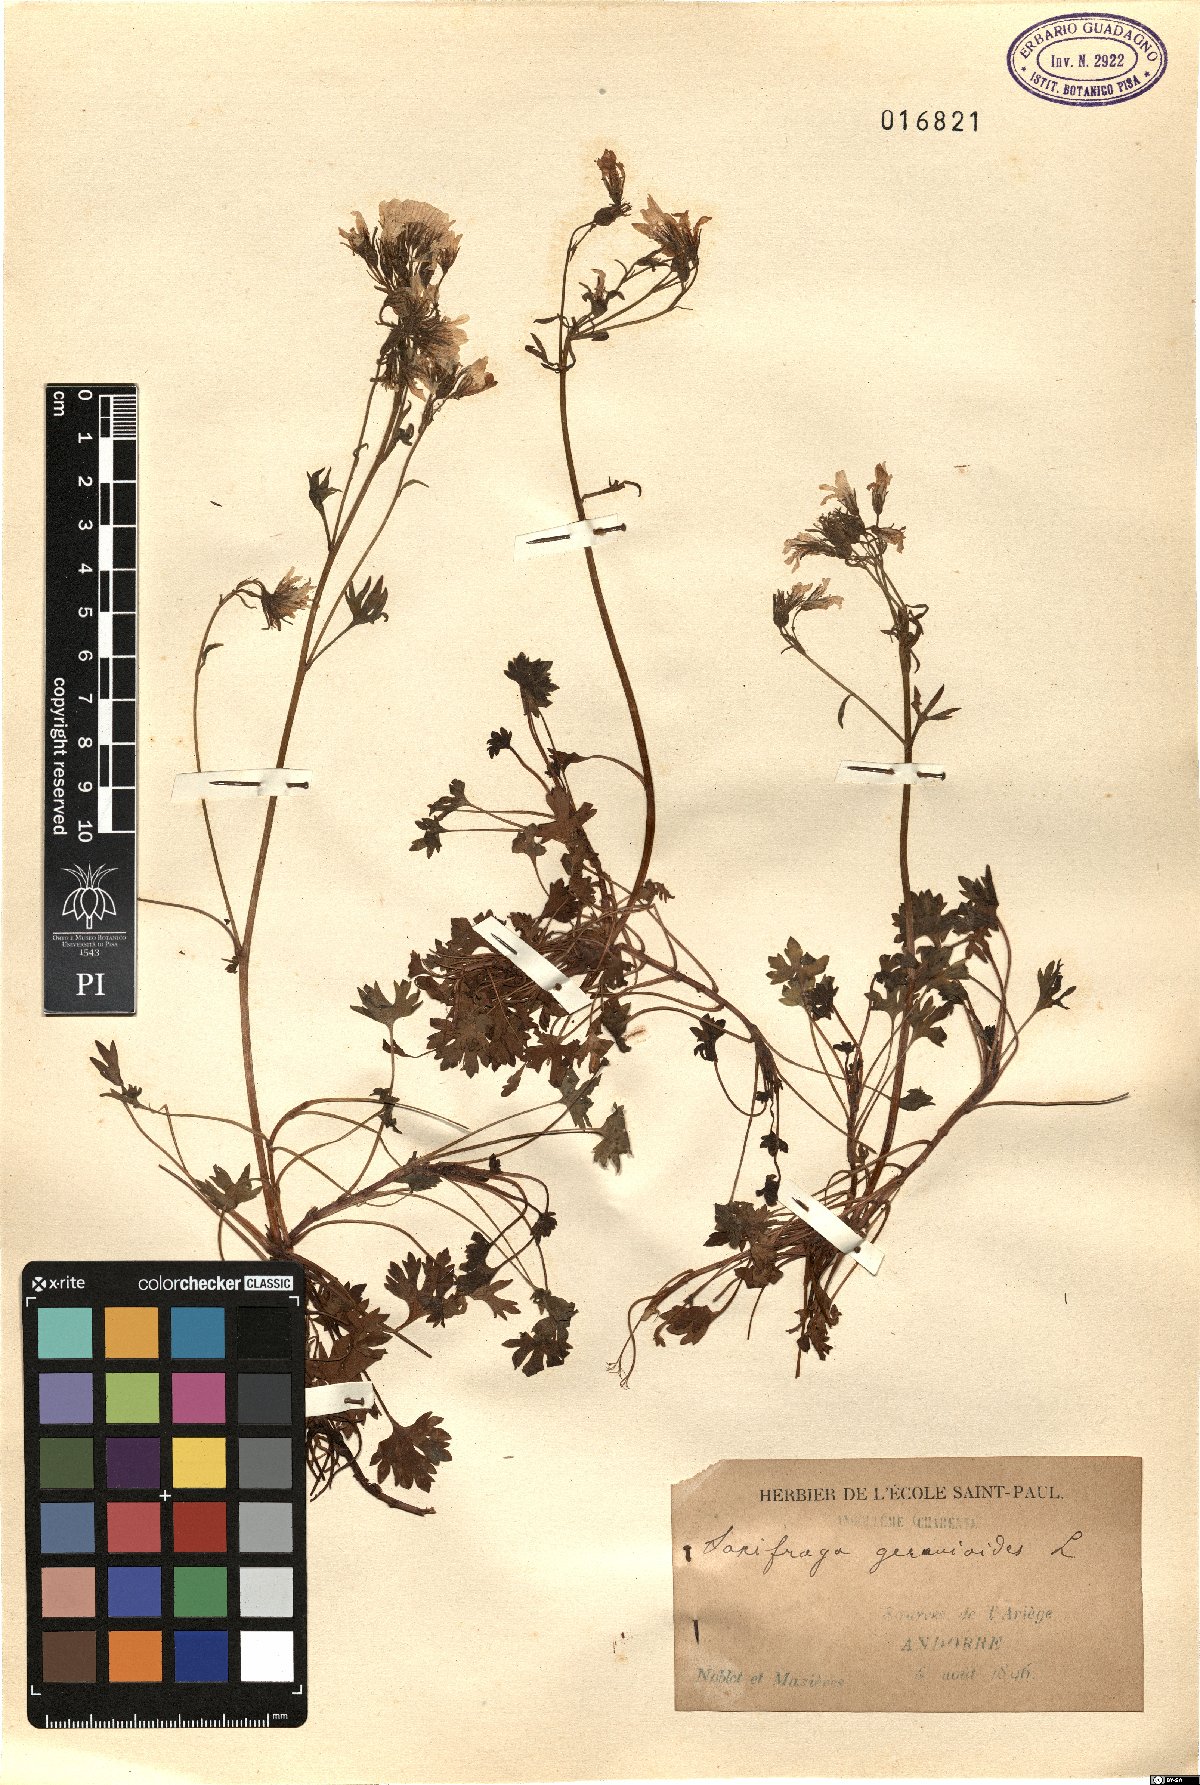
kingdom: Plantae
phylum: Tracheophyta
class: Magnoliopsida
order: Saxifragales
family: Saxifragaceae
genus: Saxifraga
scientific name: Saxifraga geranioides
